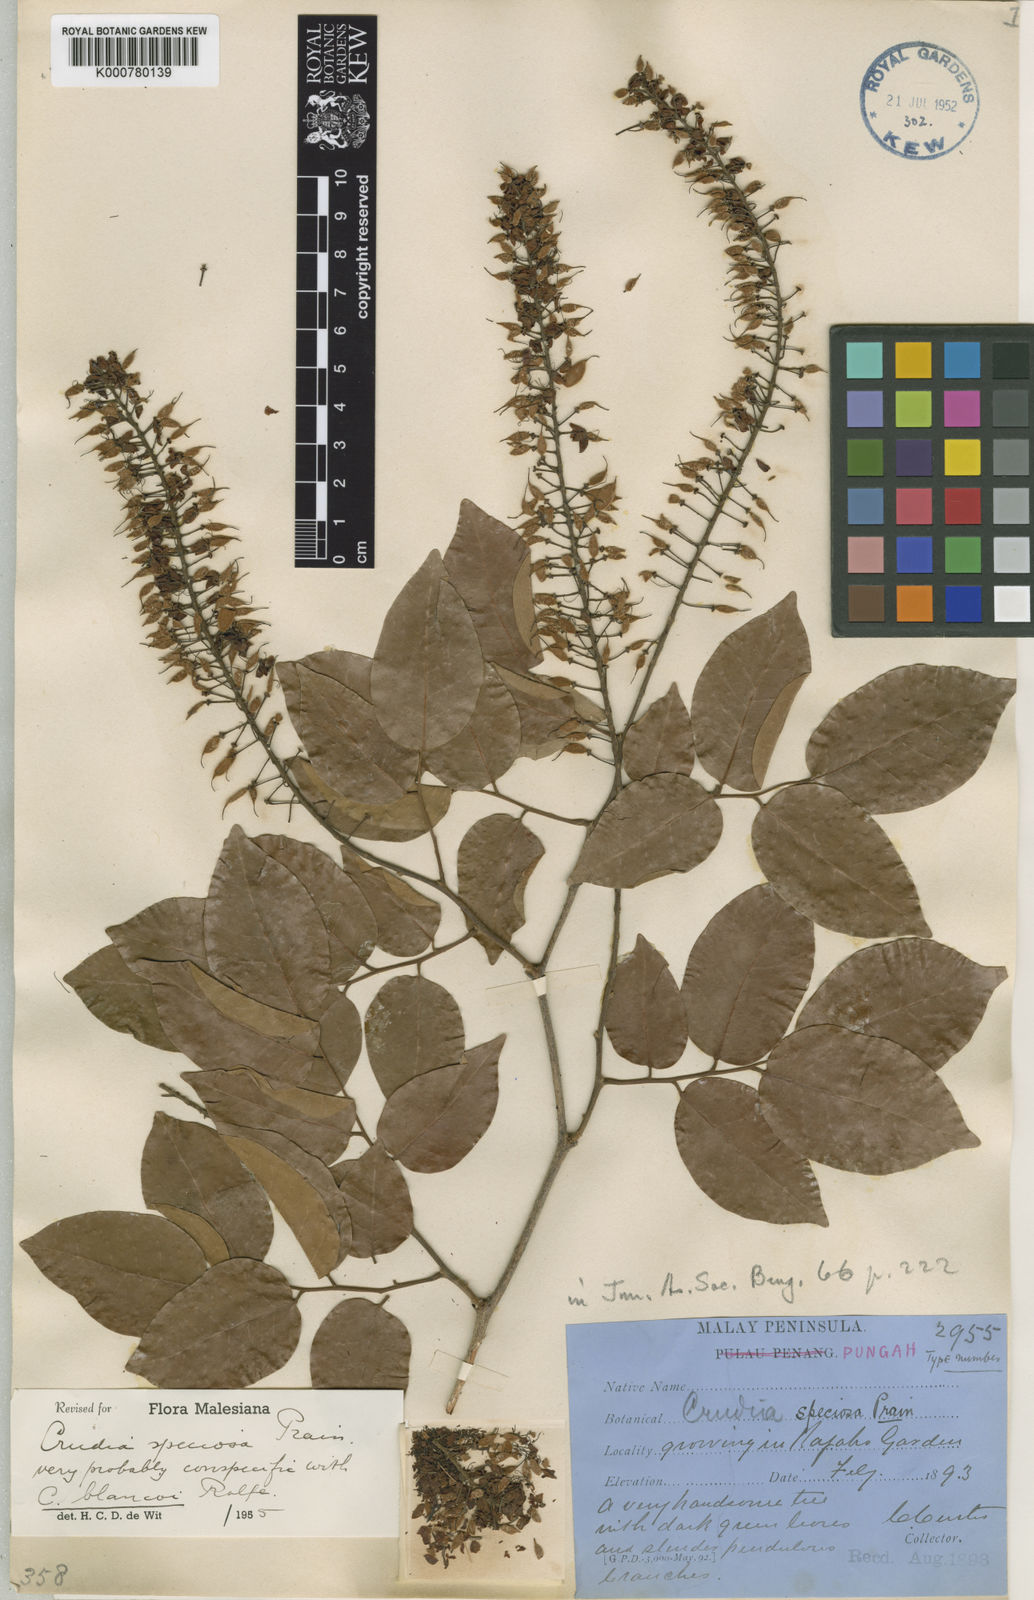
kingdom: Plantae
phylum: Tracheophyta
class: Magnoliopsida
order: Fabales
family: Fabaceae
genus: Crudia
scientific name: Crudia zeylanica
